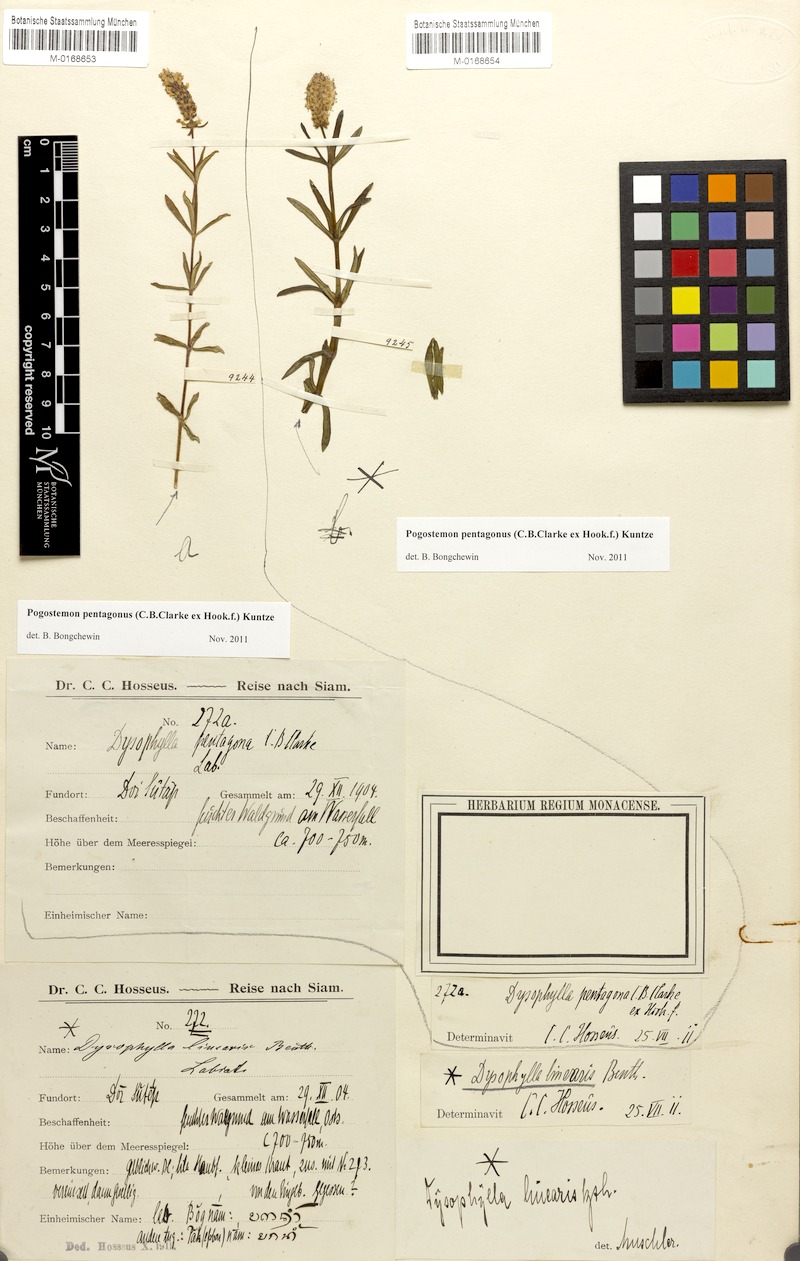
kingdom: Plantae
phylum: Tracheophyta
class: Magnoliopsida
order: Lamiales
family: Lamiaceae
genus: Pogostemon
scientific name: Pogostemon pentagonus
